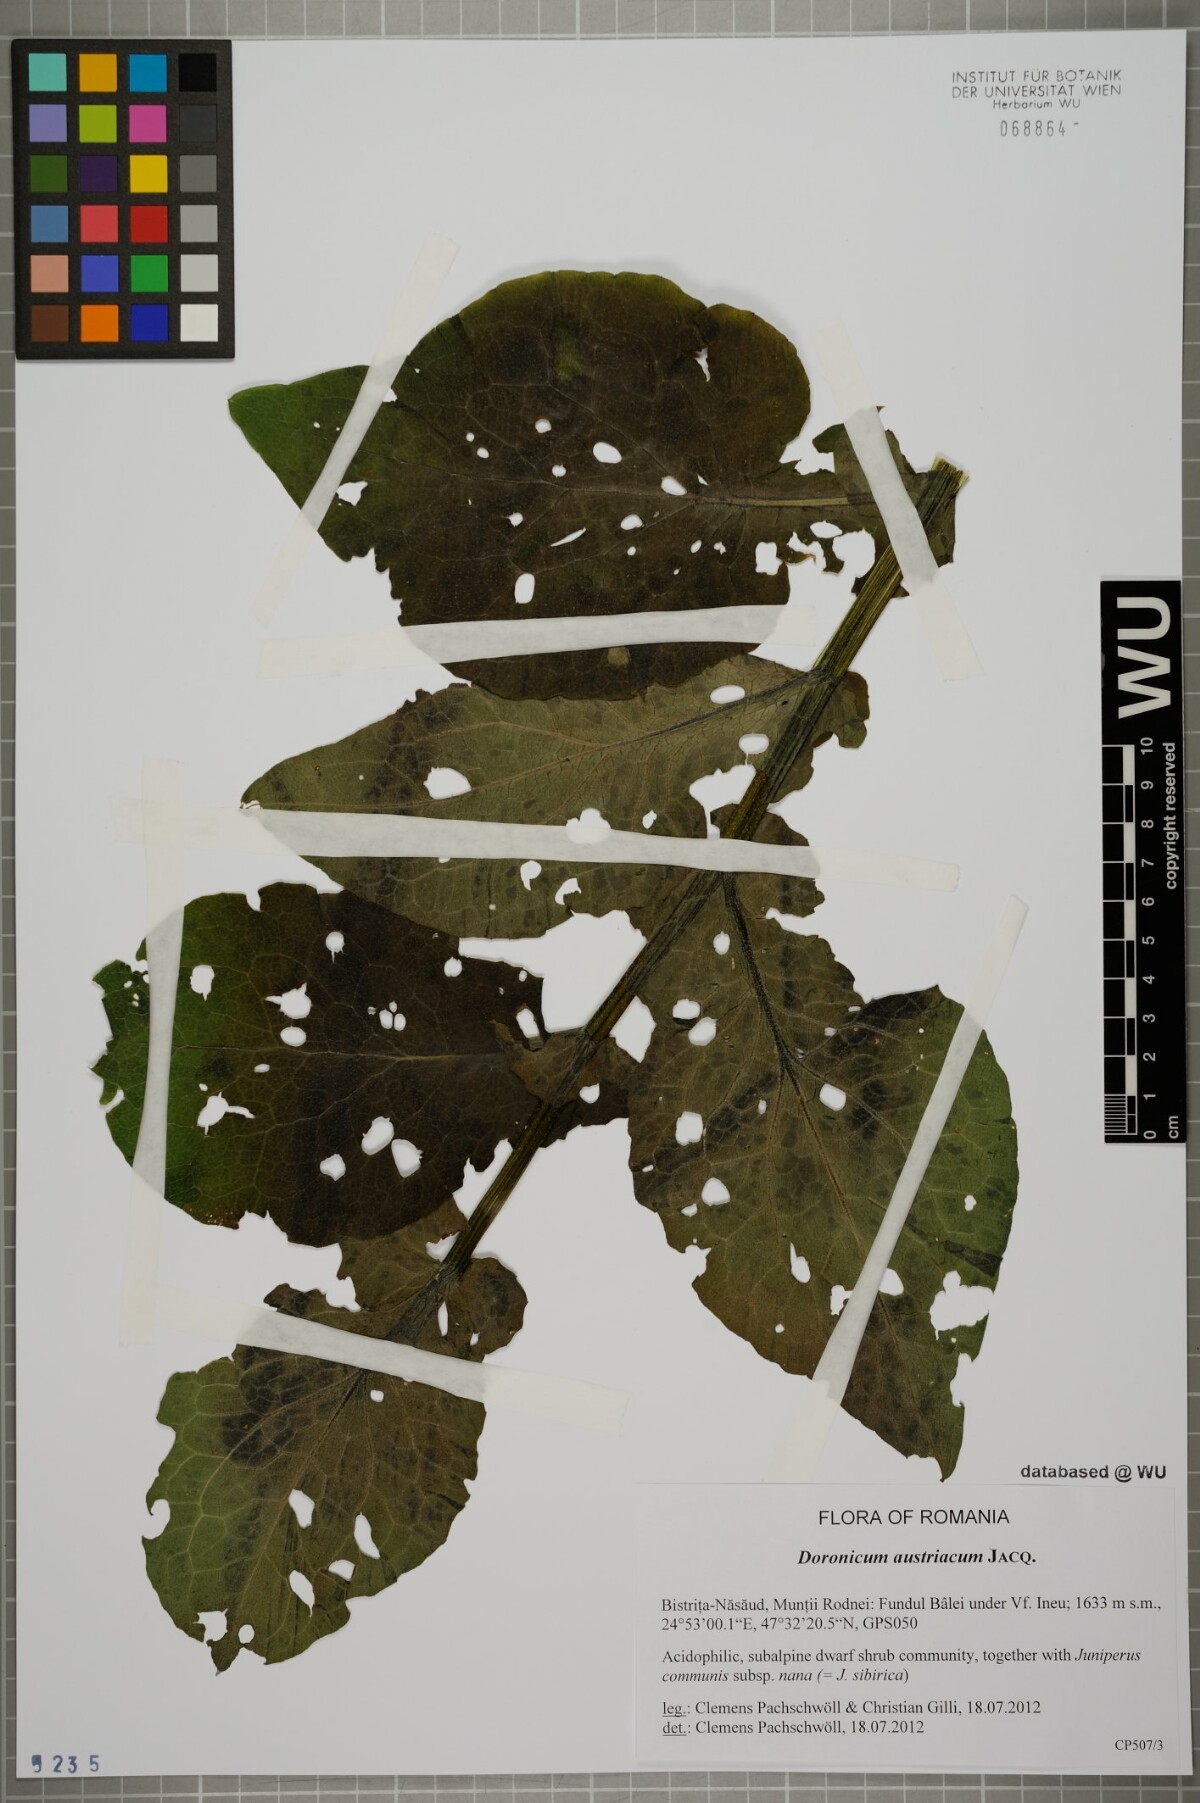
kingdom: Plantae
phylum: Tracheophyta
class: Magnoliopsida
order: Asterales
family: Asteraceae
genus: Doronicum
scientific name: Doronicum austriacum
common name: Austrian leopard's-bane
